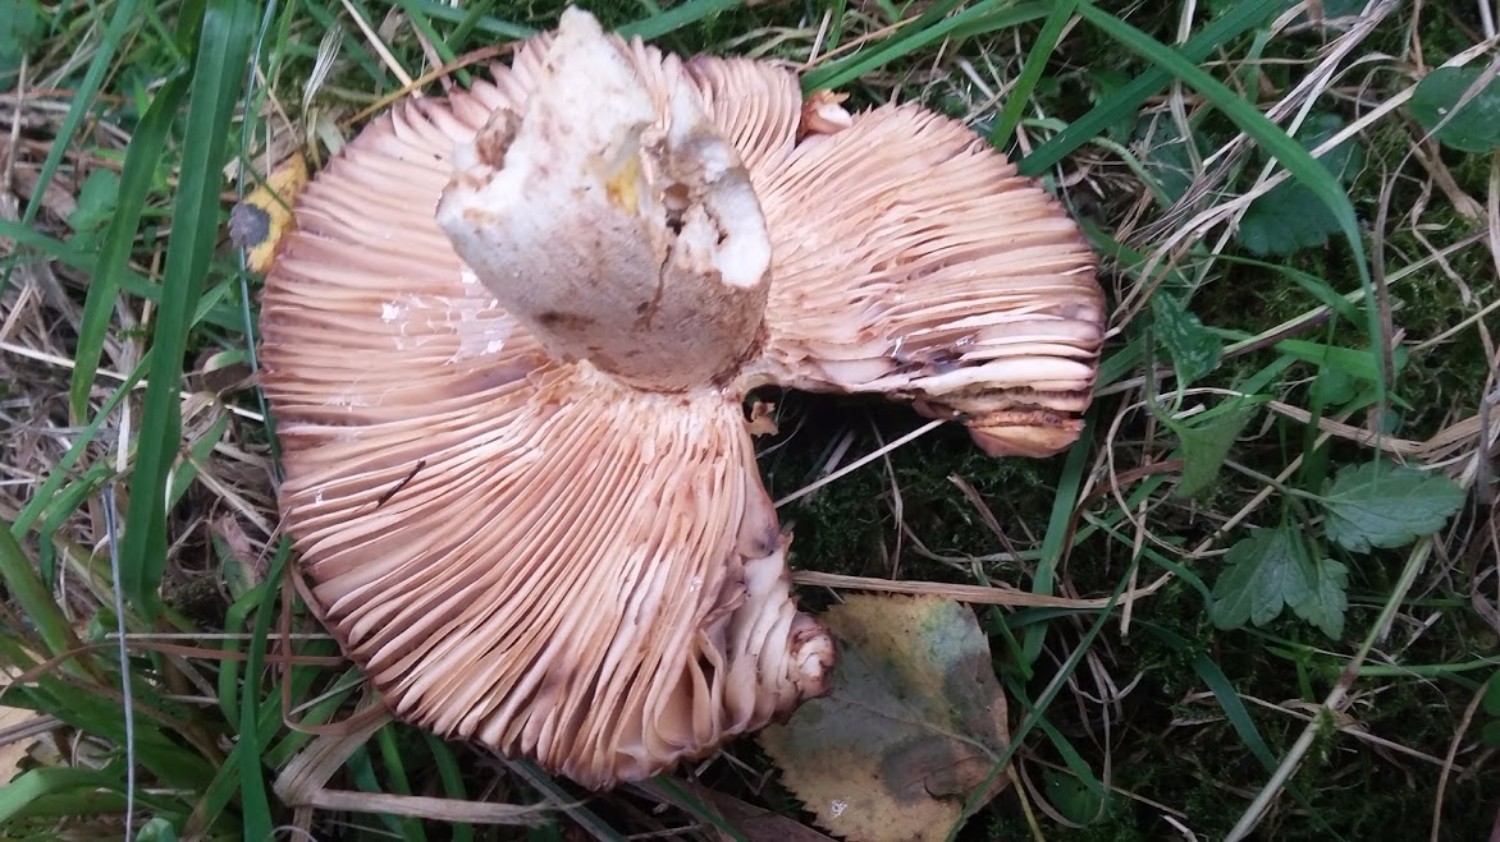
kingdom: Fungi
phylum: Basidiomycota
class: Agaricomycetes
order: Russulales
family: Russulaceae
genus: Russula
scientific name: Russula foetens
